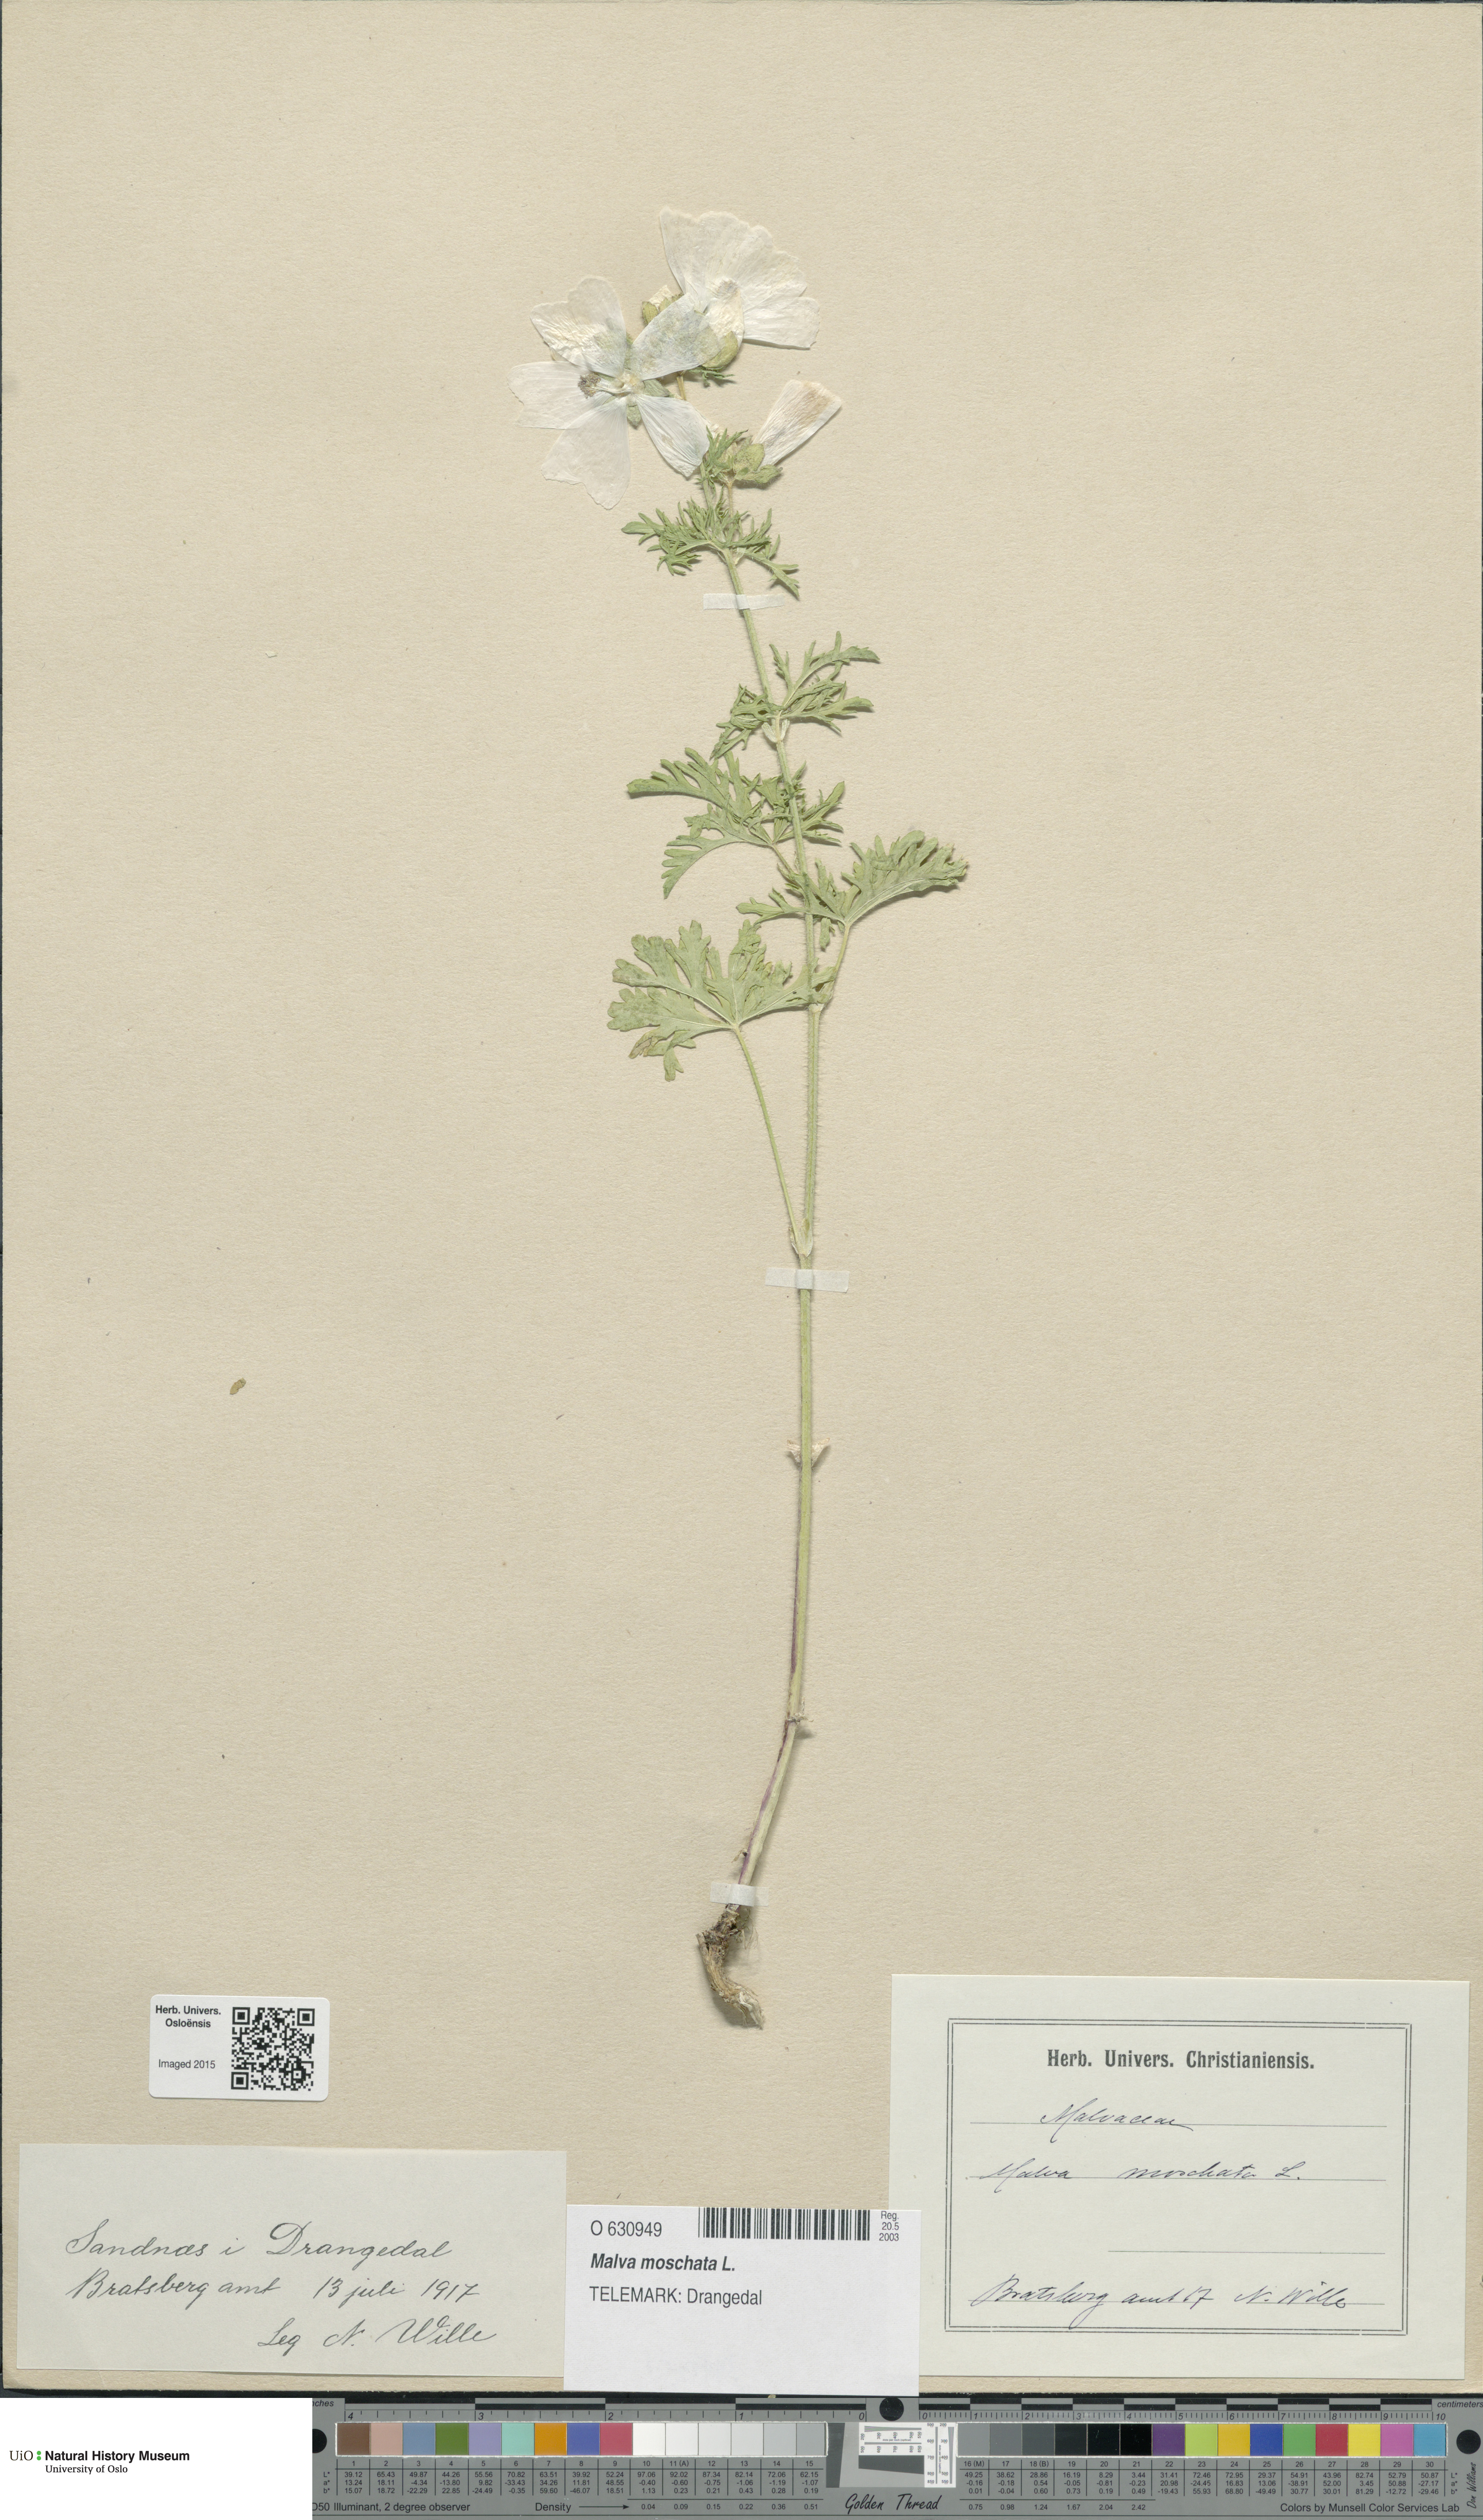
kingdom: Plantae
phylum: Tracheophyta
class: Magnoliopsida
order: Malvales
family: Malvaceae
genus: Malva
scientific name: Malva moschata
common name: Musk mallow
